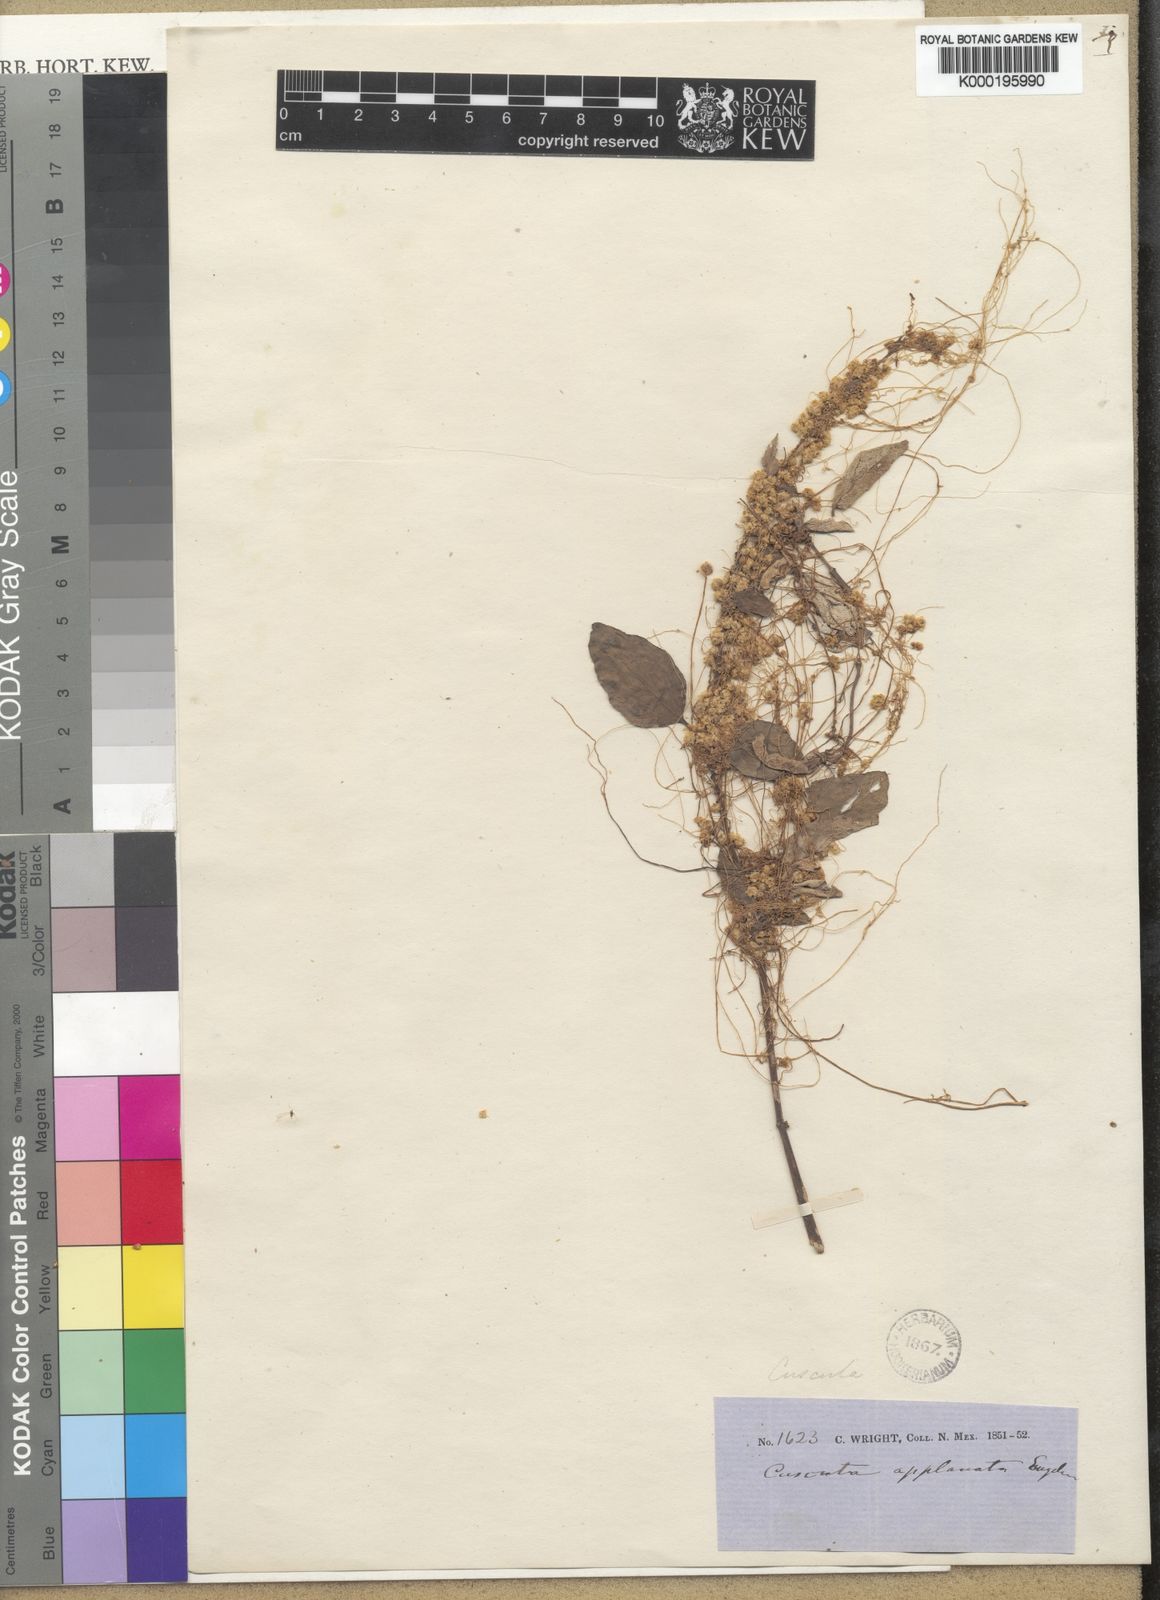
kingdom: Plantae
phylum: Tracheophyta
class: Magnoliopsida
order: Solanales
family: Convolvulaceae
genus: Cuscuta
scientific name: Cuscuta applanata
